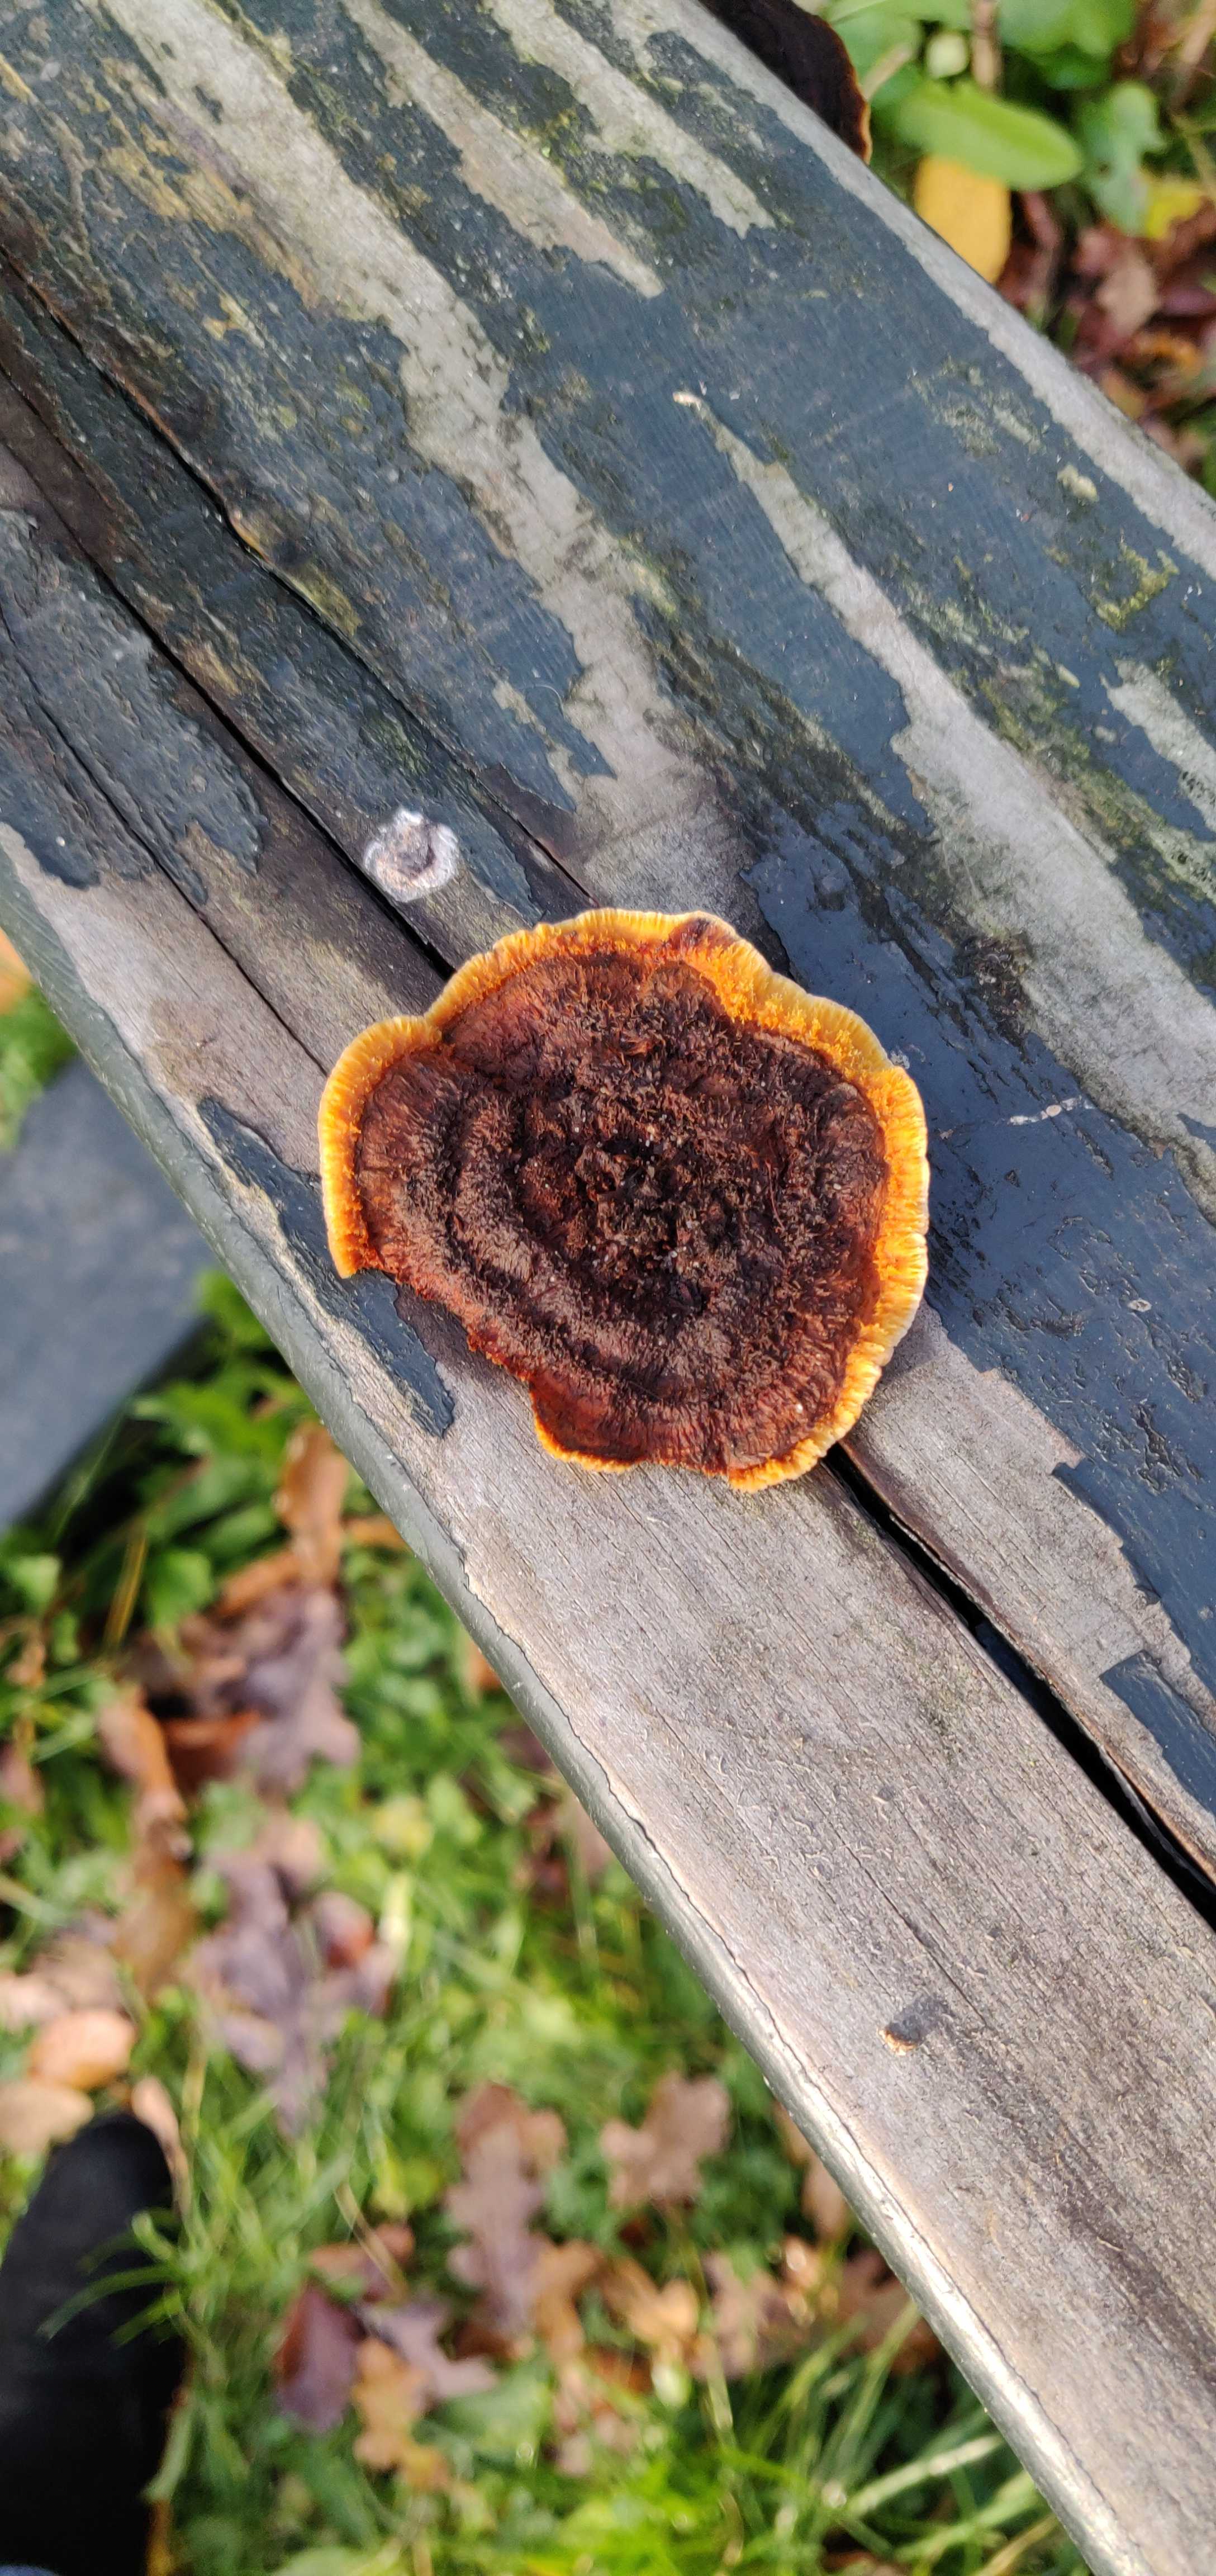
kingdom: Fungi
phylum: Basidiomycota
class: Agaricomycetes
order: Gloeophyllales
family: Gloeophyllaceae
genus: Gloeophyllum
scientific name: Gloeophyllum sepiarium
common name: fyrre-korkhat
